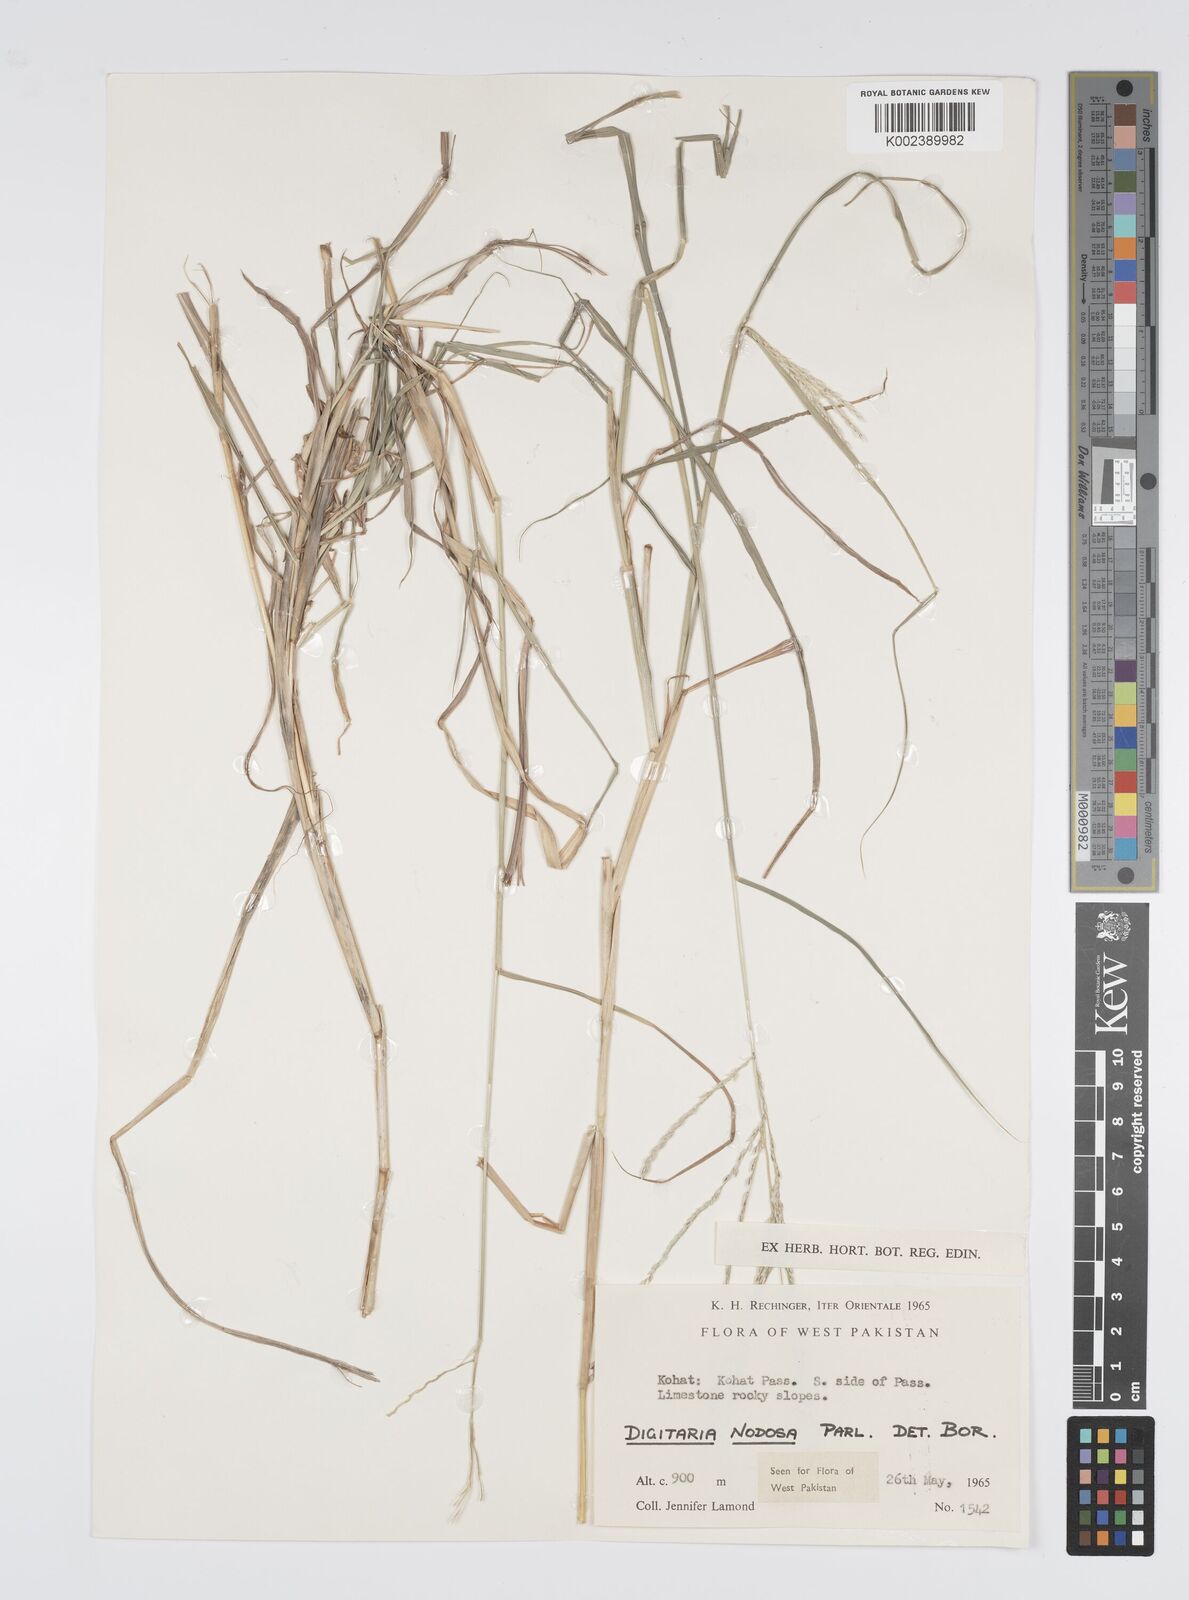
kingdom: Plantae
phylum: Tracheophyta
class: Liliopsida
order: Poales
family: Poaceae
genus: Digitaria
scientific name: Digitaria nodosa
